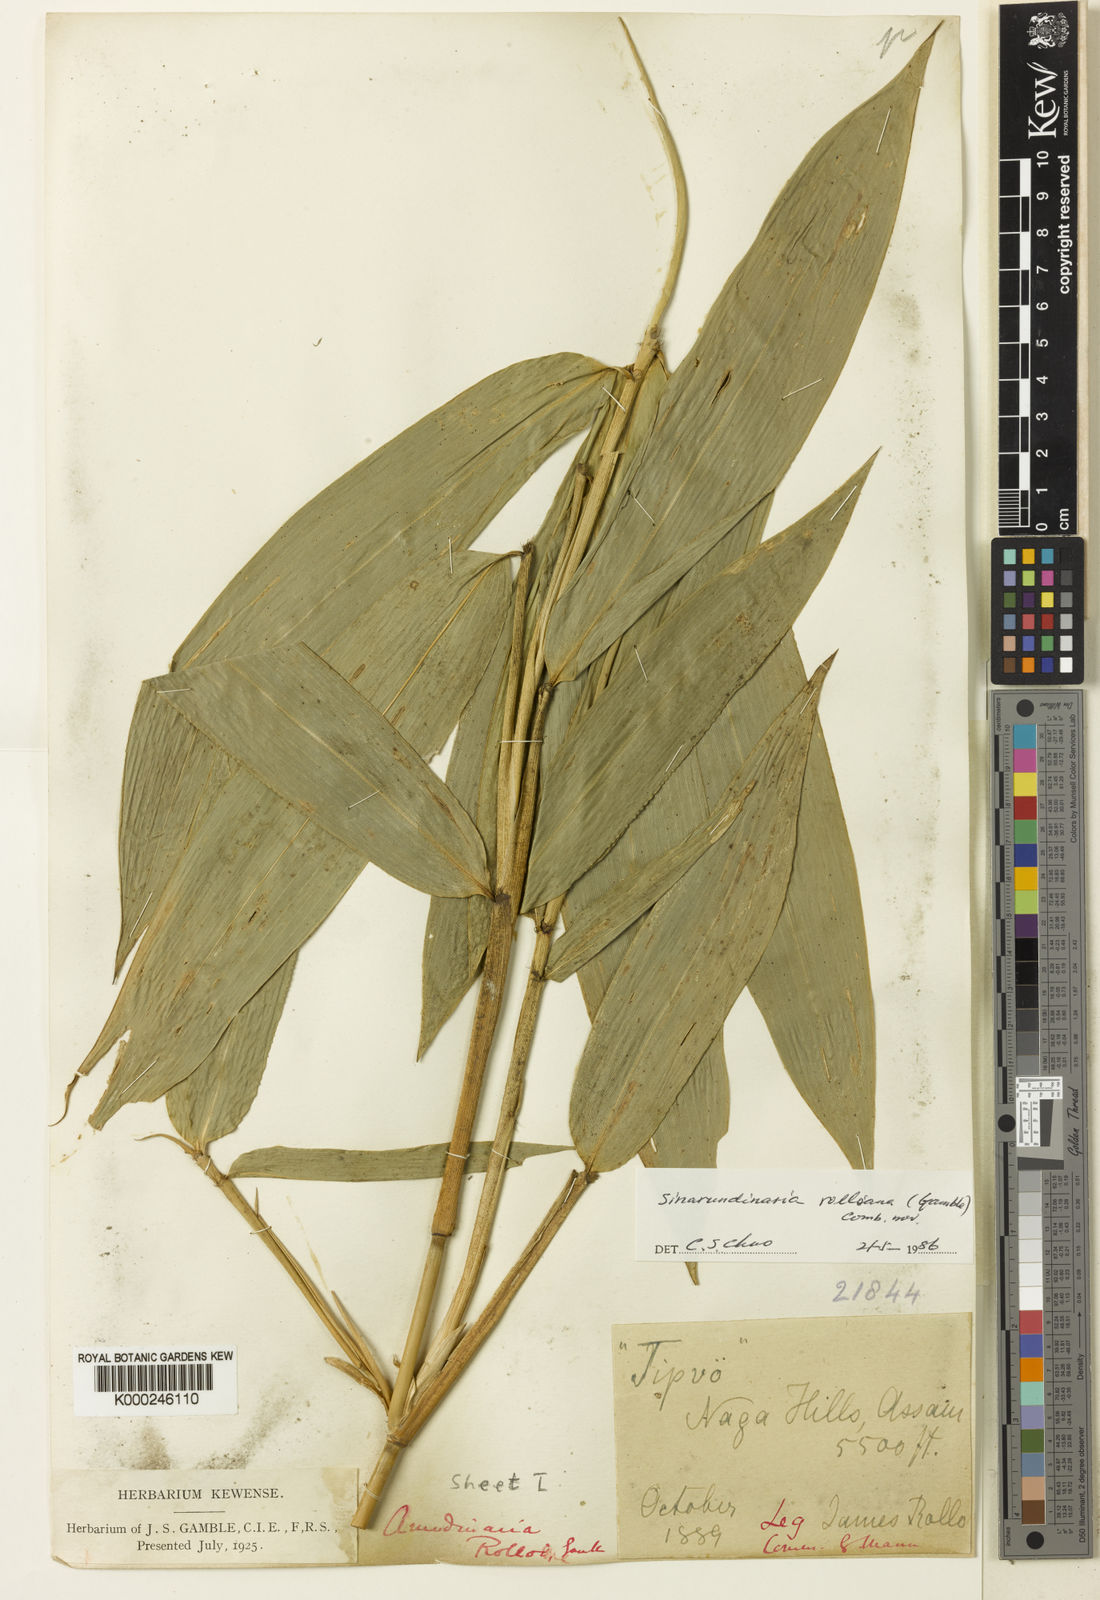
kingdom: Plantae
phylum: Tracheophyta
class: Liliopsida
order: Poales
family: Poaceae
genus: Yushania
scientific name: Yushania rolloana
